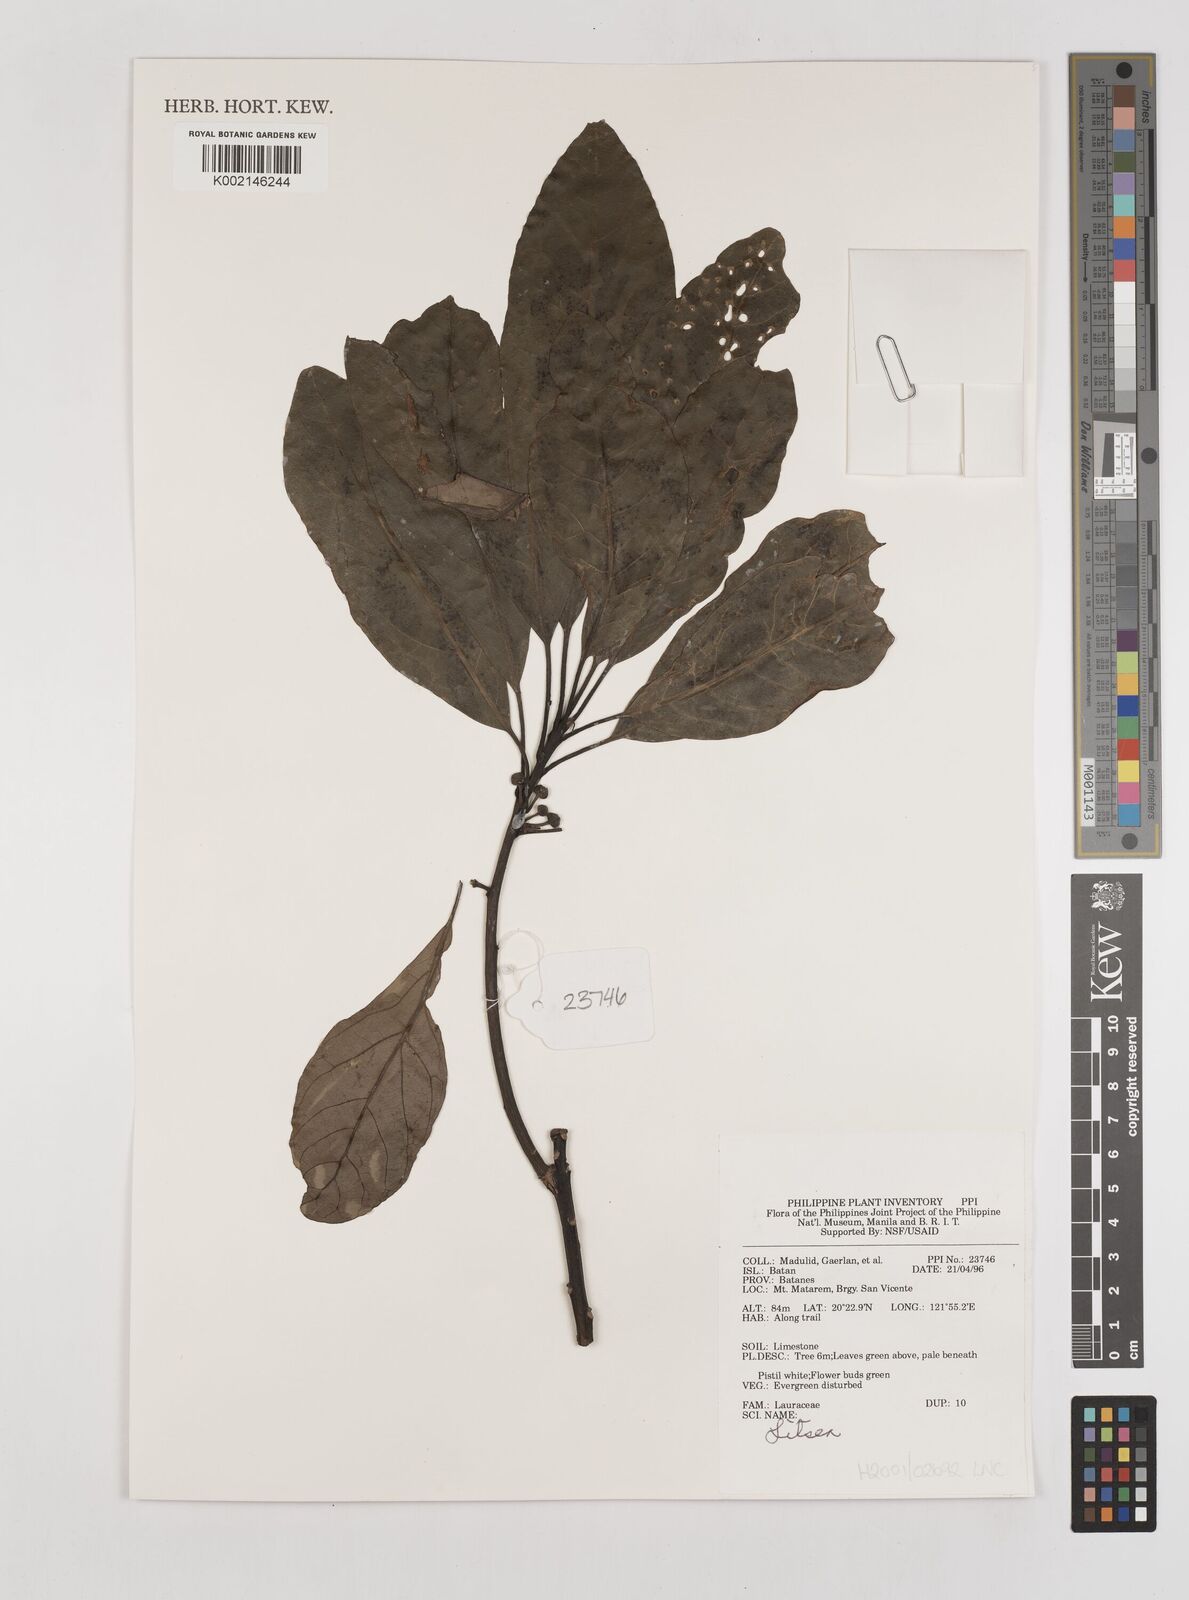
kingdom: Plantae
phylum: Tracheophyta
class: Magnoliopsida
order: Laurales
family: Lauraceae
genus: Litsea
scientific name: Litsea
